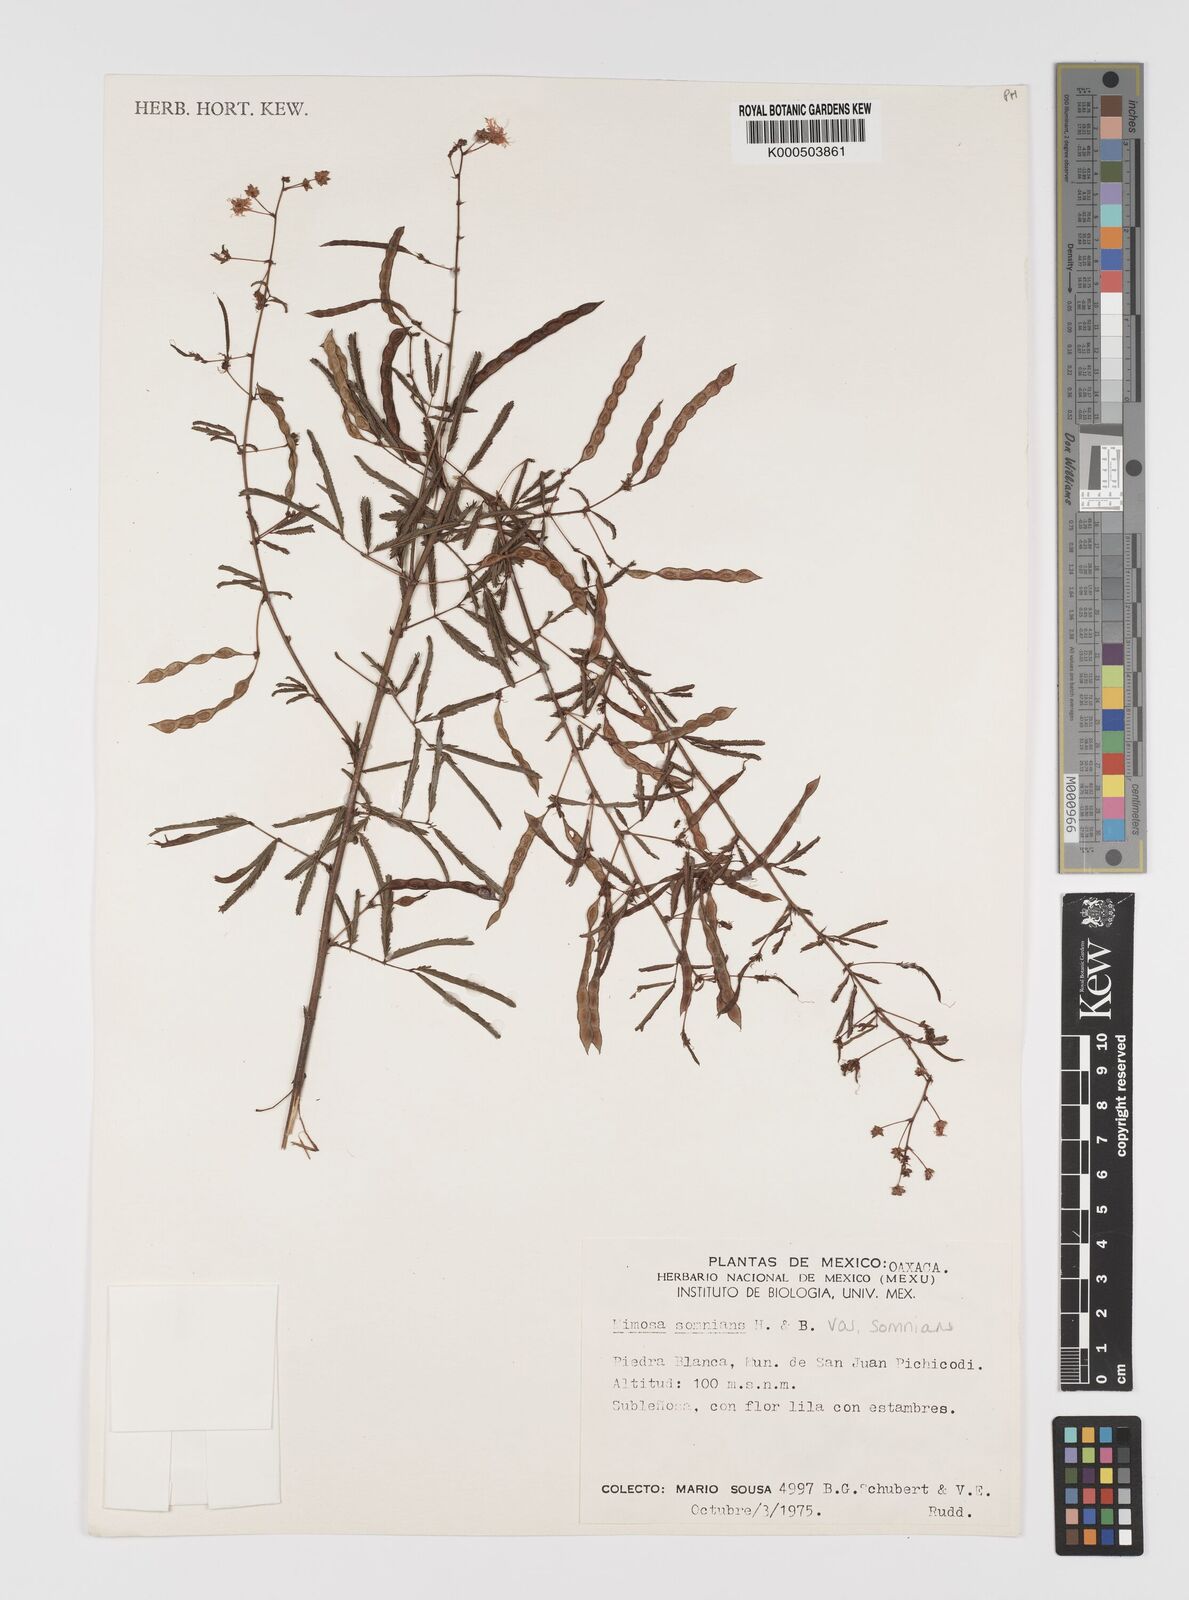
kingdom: Plantae
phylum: Tracheophyta
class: Magnoliopsida
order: Fabales
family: Fabaceae
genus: Mimosa
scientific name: Mimosa somnians
